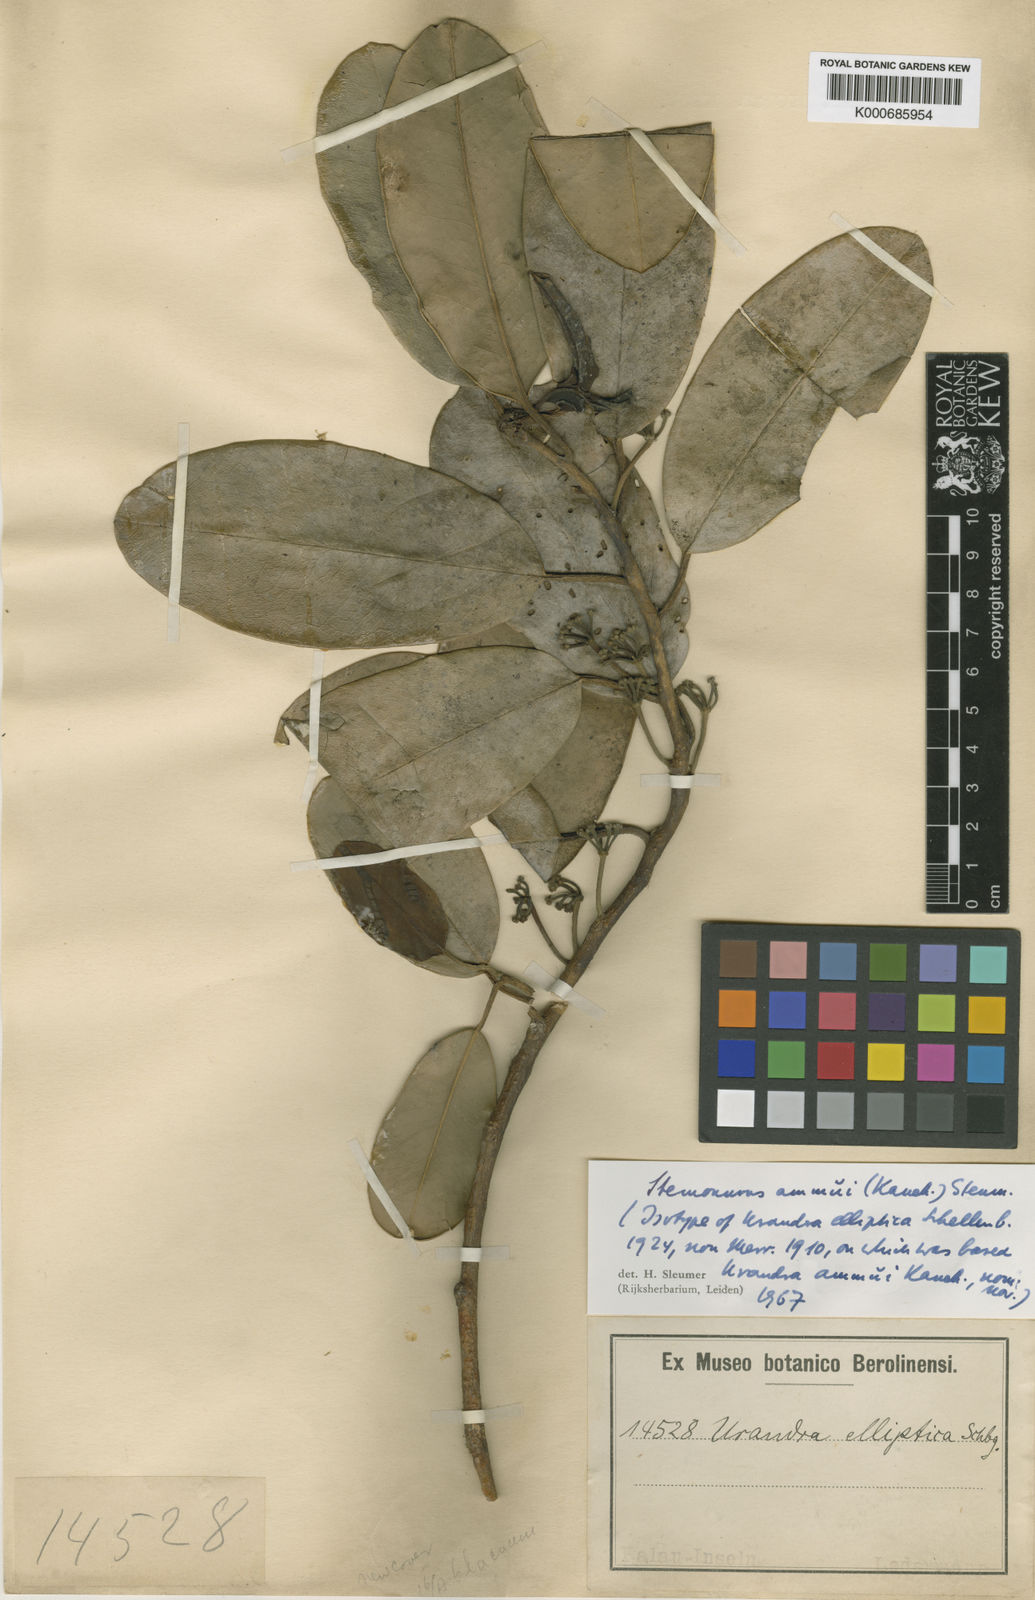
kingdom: Plantae
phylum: Tracheophyta
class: Magnoliopsida
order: Cardiopteridales
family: Stemonuraceae
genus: Stemonurus
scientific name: Stemonurus ammui
